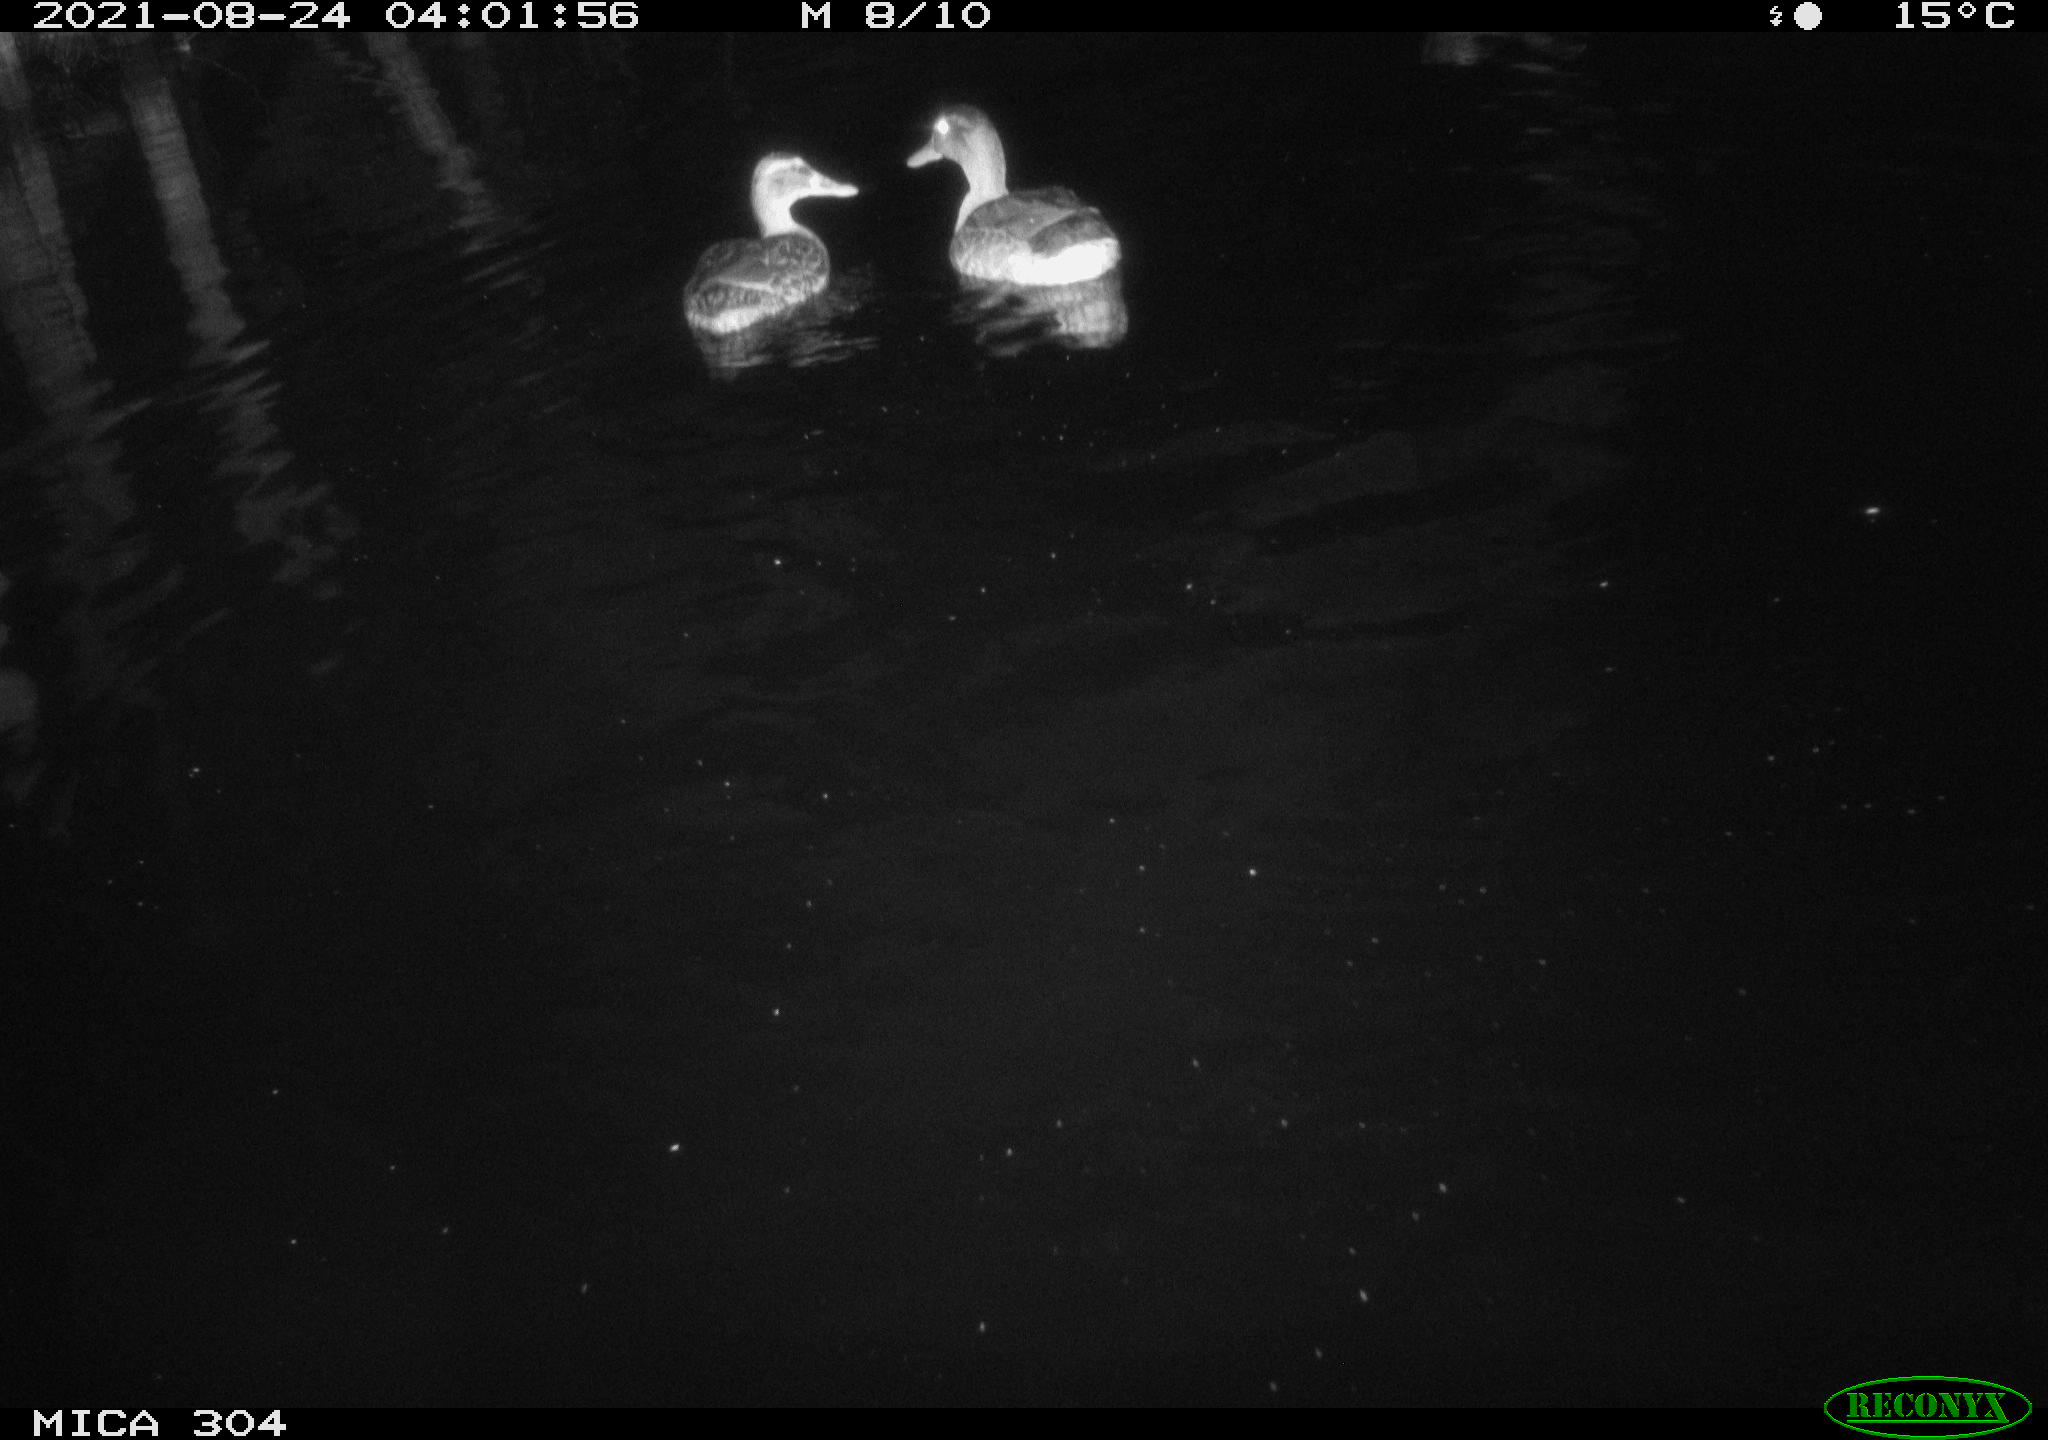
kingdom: Animalia
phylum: Chordata
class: Aves
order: Anseriformes
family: Anatidae
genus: Mareca
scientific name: Mareca strepera
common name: Gadwall
